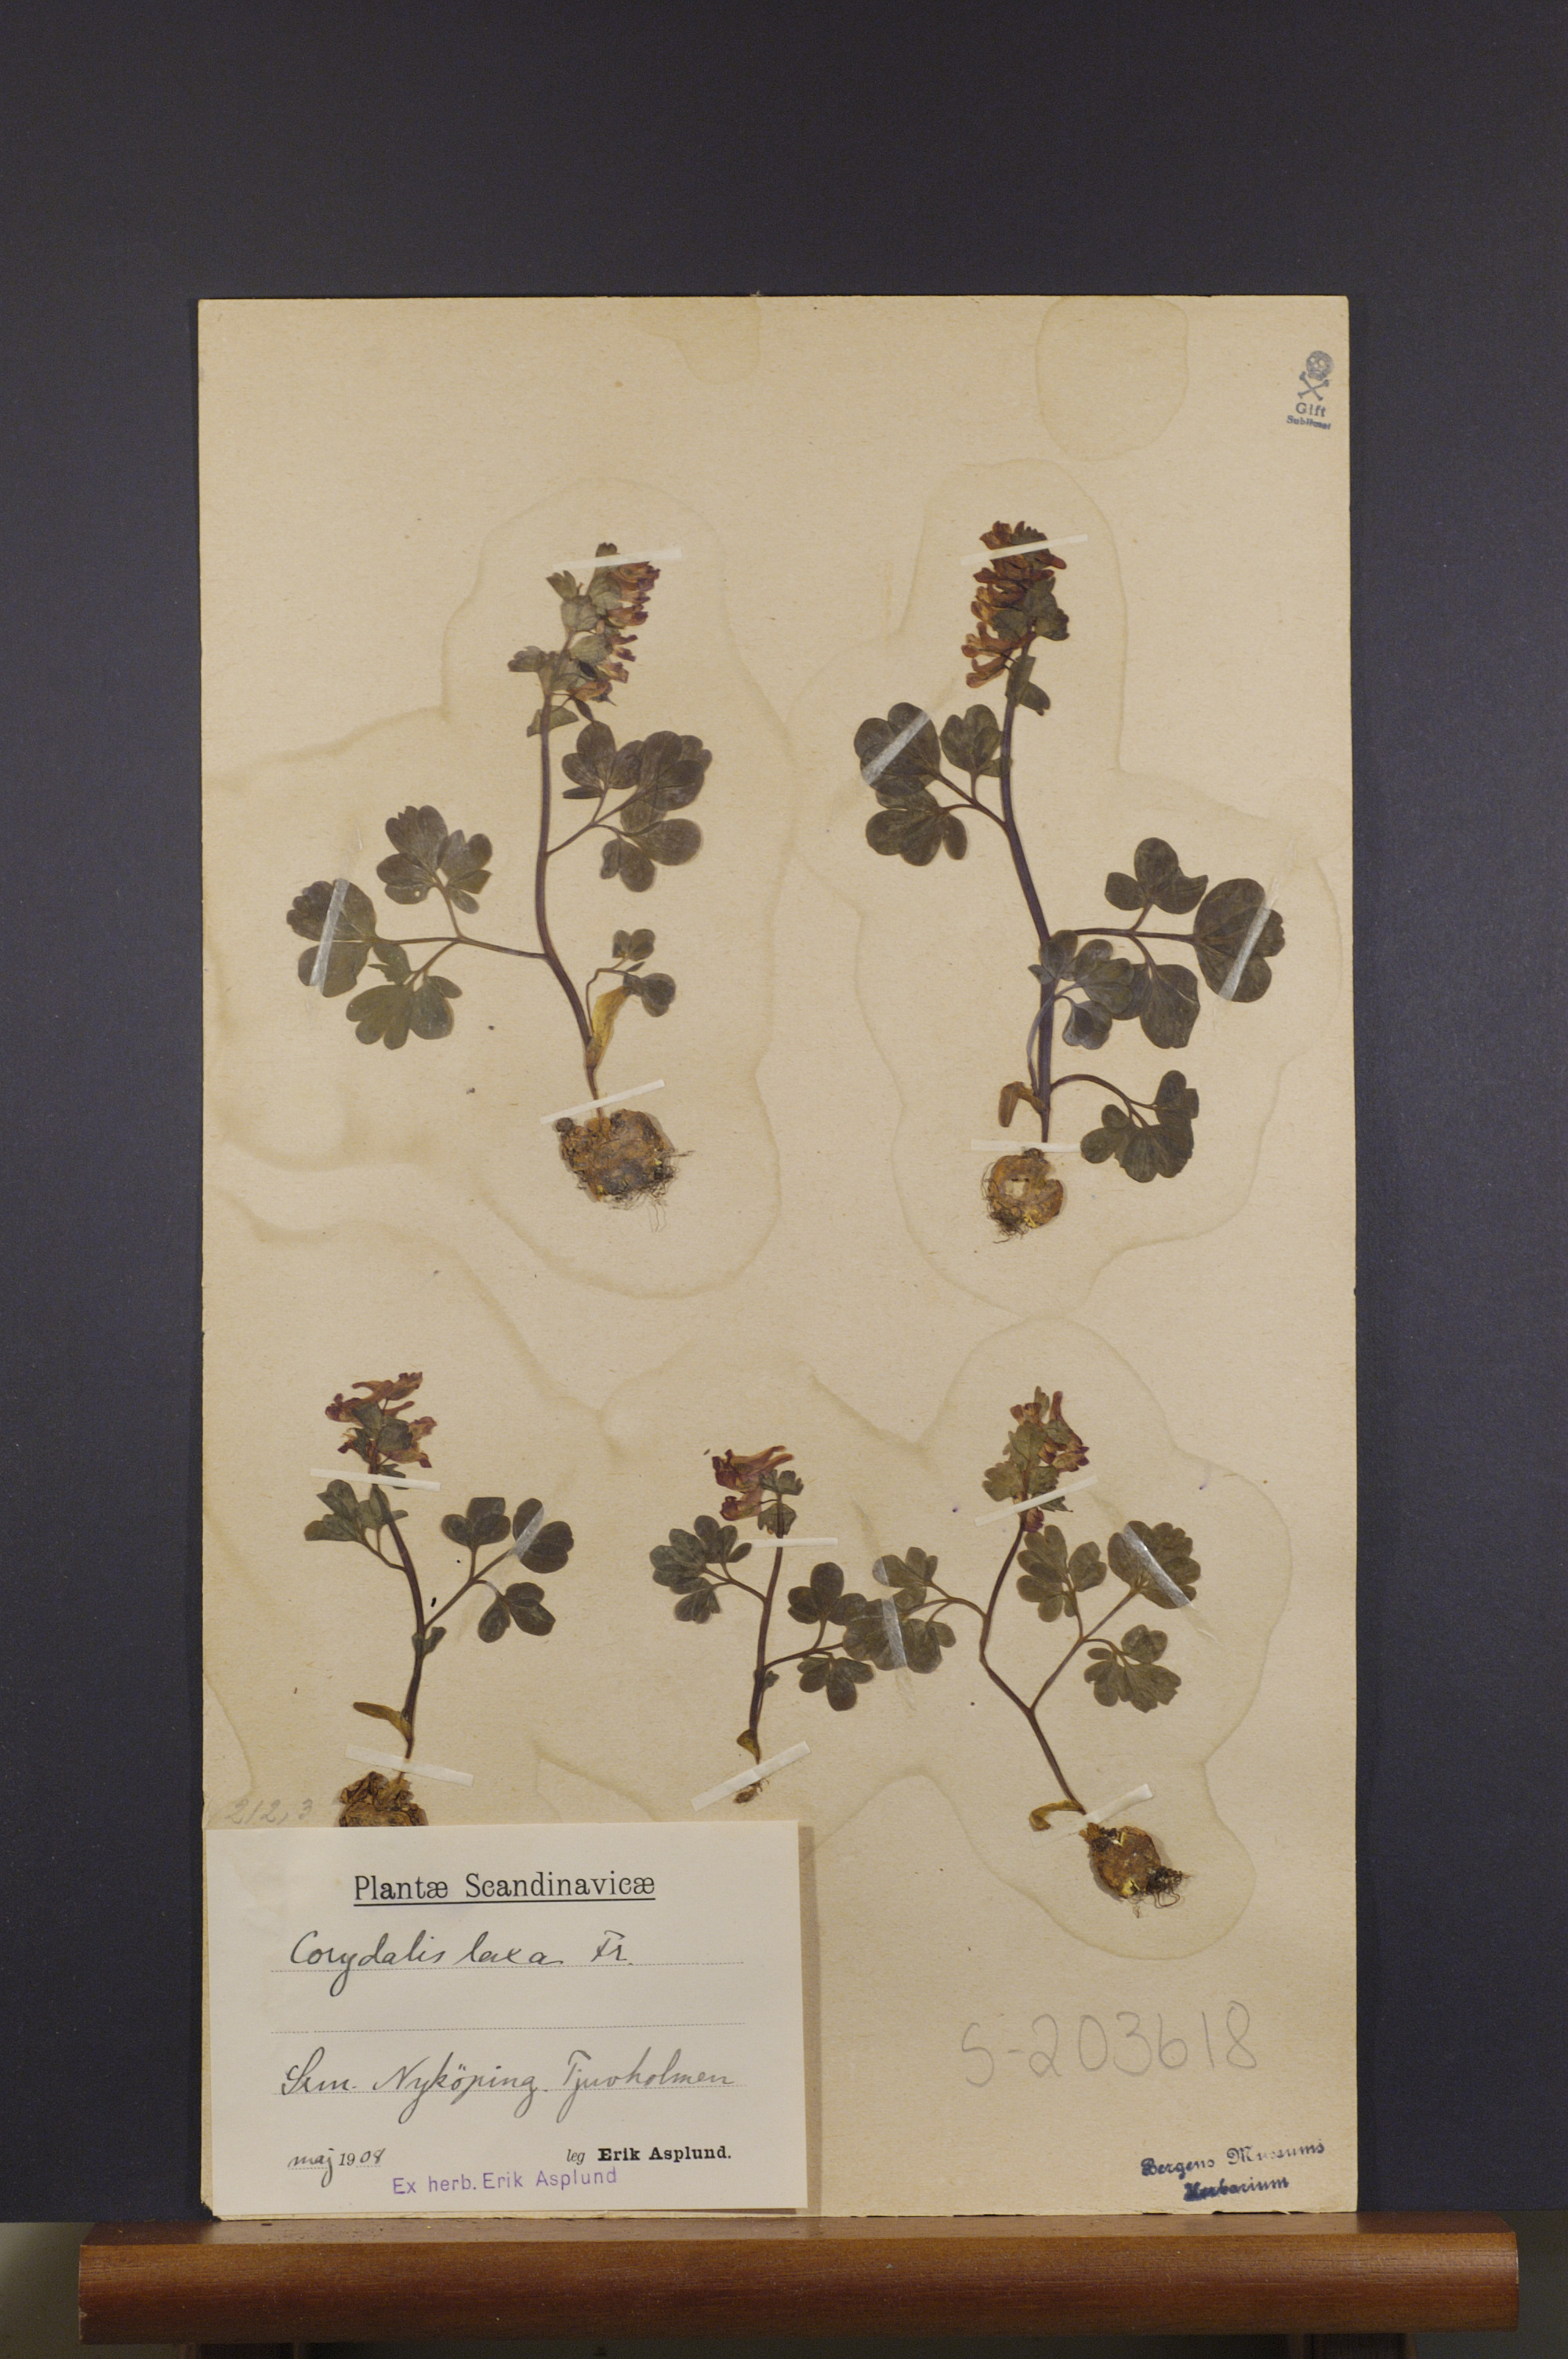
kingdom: Plantae
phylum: Tracheophyta
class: Magnoliopsida
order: Ranunculales
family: Papaveraceae
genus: Corydalis
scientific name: Corydalis solida
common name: Bird-in-a-bush
